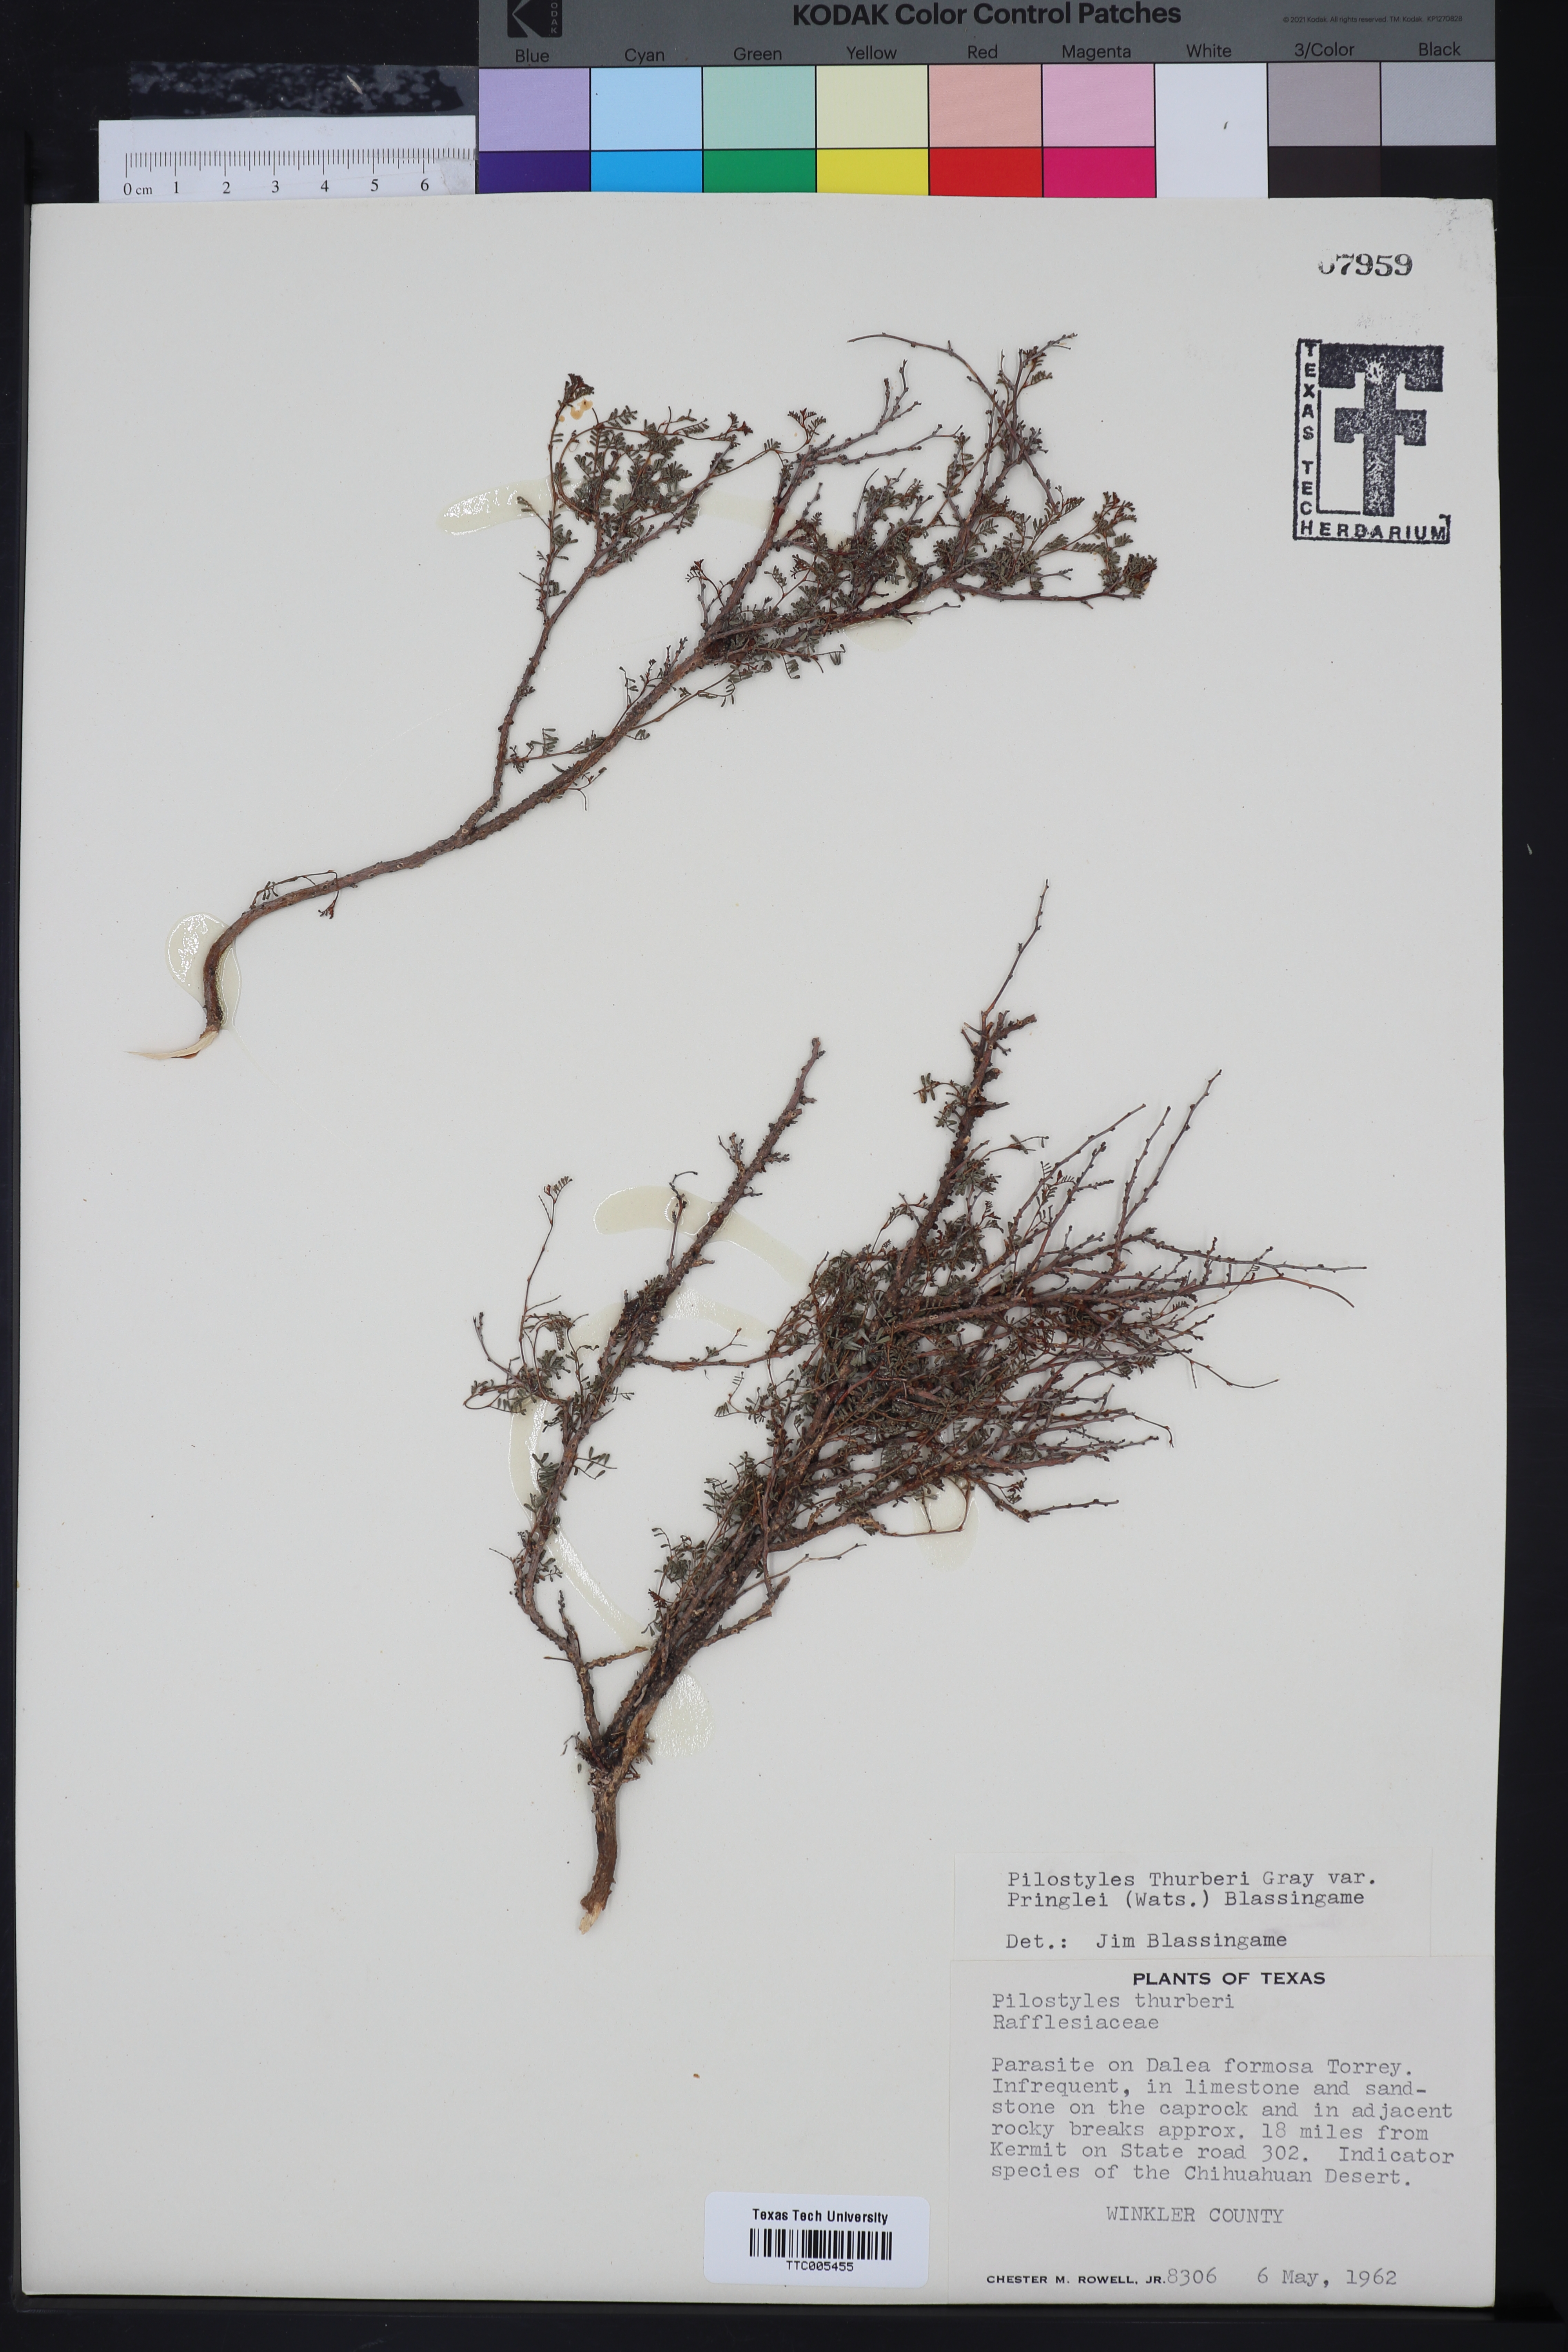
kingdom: Plantae
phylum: Tracheophyta
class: Magnoliopsida
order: Cucurbitales
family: Apodanthaceae
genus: Pilostyles
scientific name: Pilostyles thurberi
